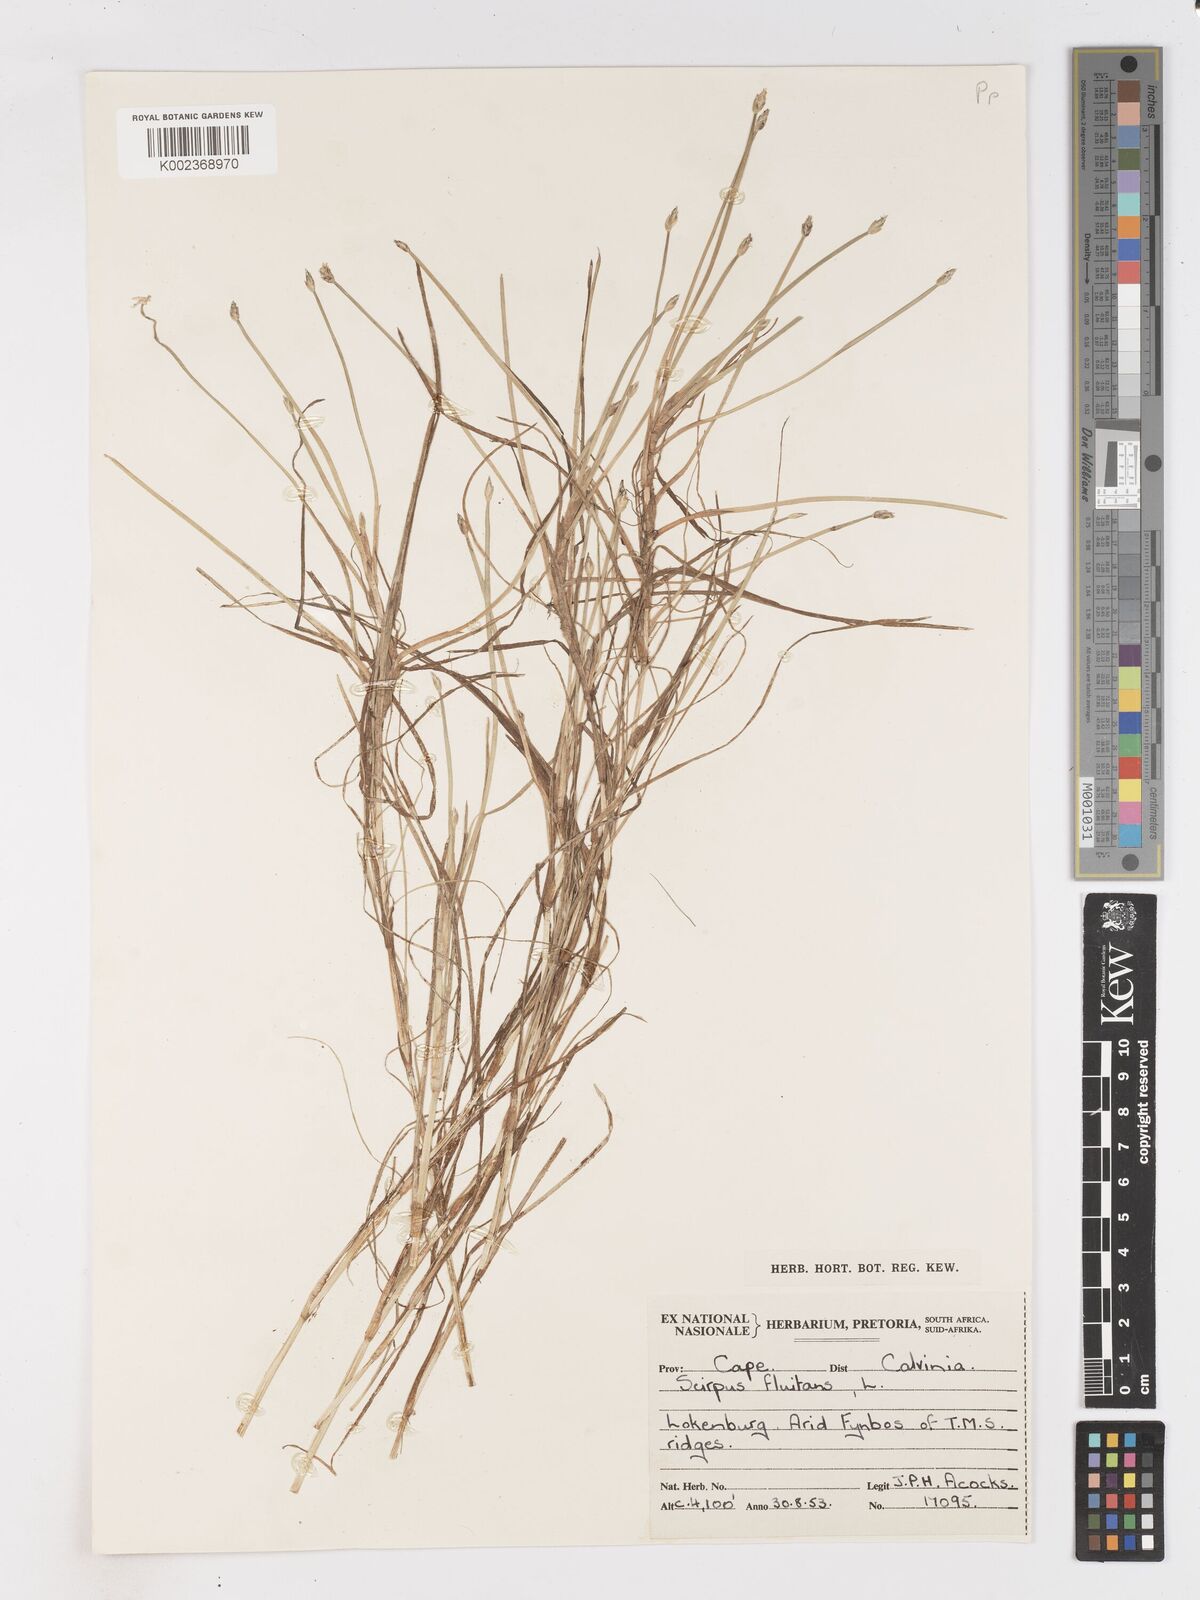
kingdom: Plantae
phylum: Tracheophyta
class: Liliopsida
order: Poales
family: Cyperaceae
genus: Isolepis
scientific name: Isolepis striata
